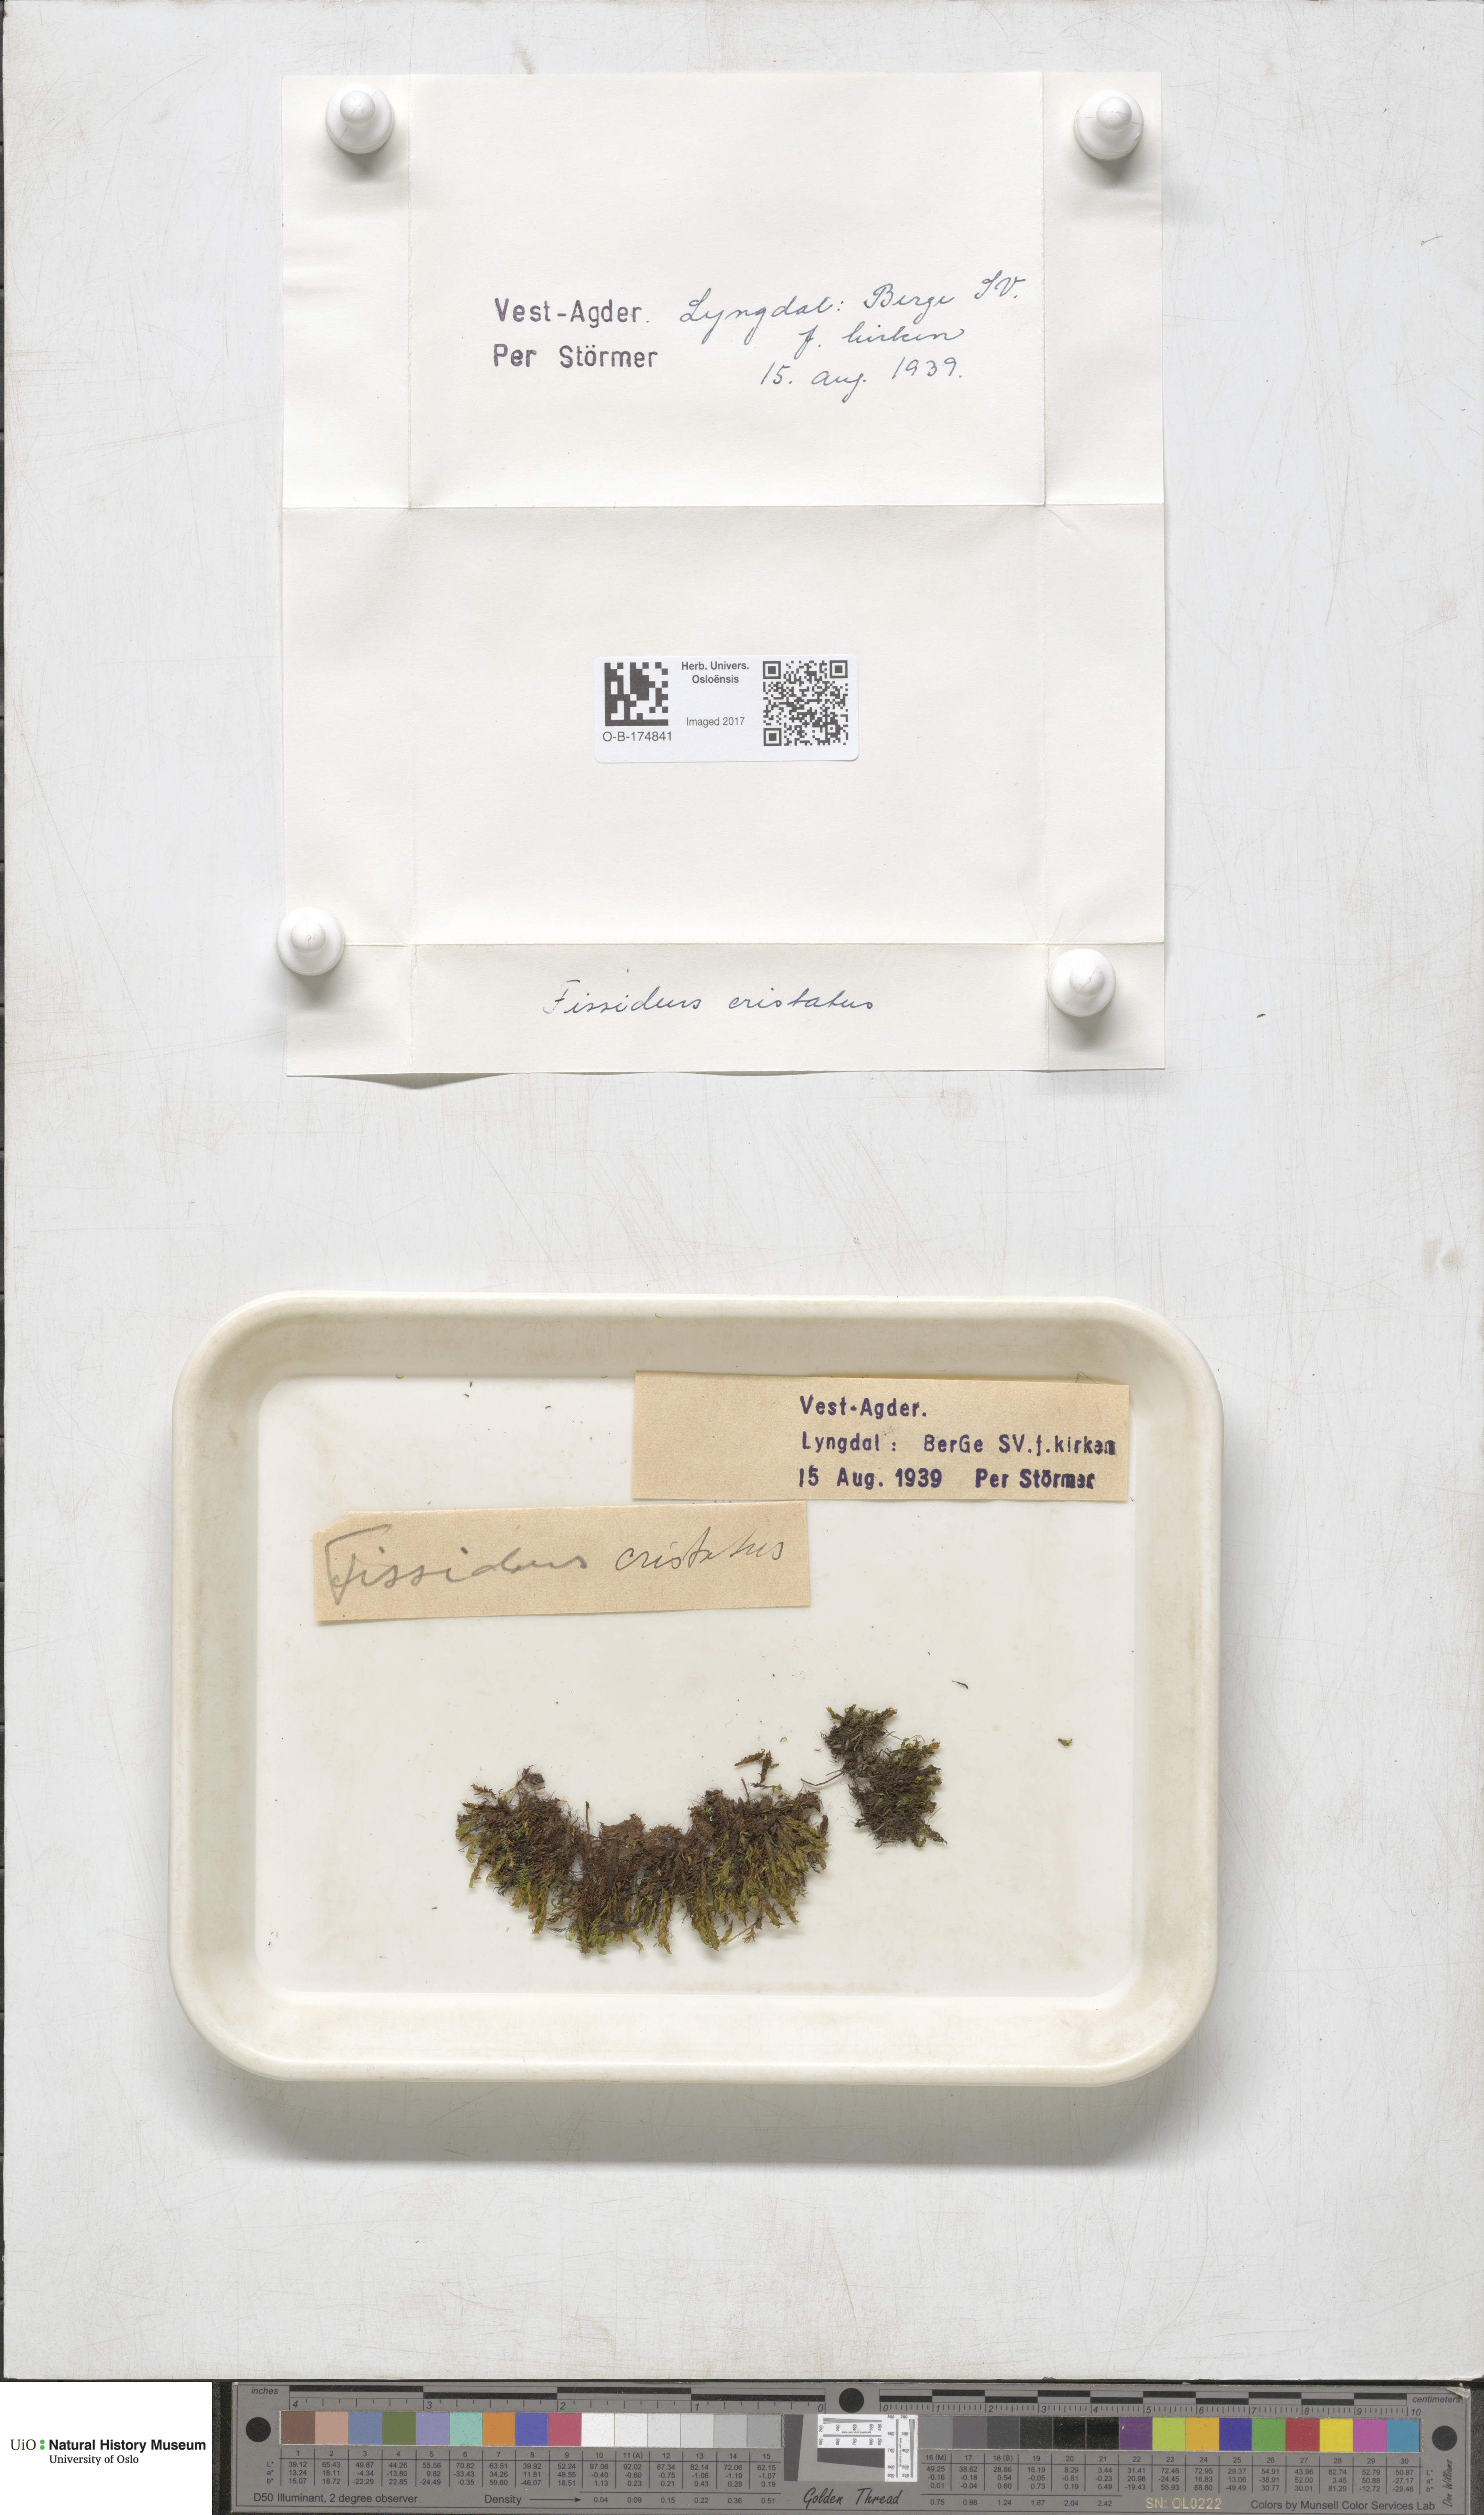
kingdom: Plantae
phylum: Bryophyta
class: Bryopsida
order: Dicranales
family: Fissidentaceae
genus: Fissidens
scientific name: Fissidens osmundoides
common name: Purple-stalked pocket moss
